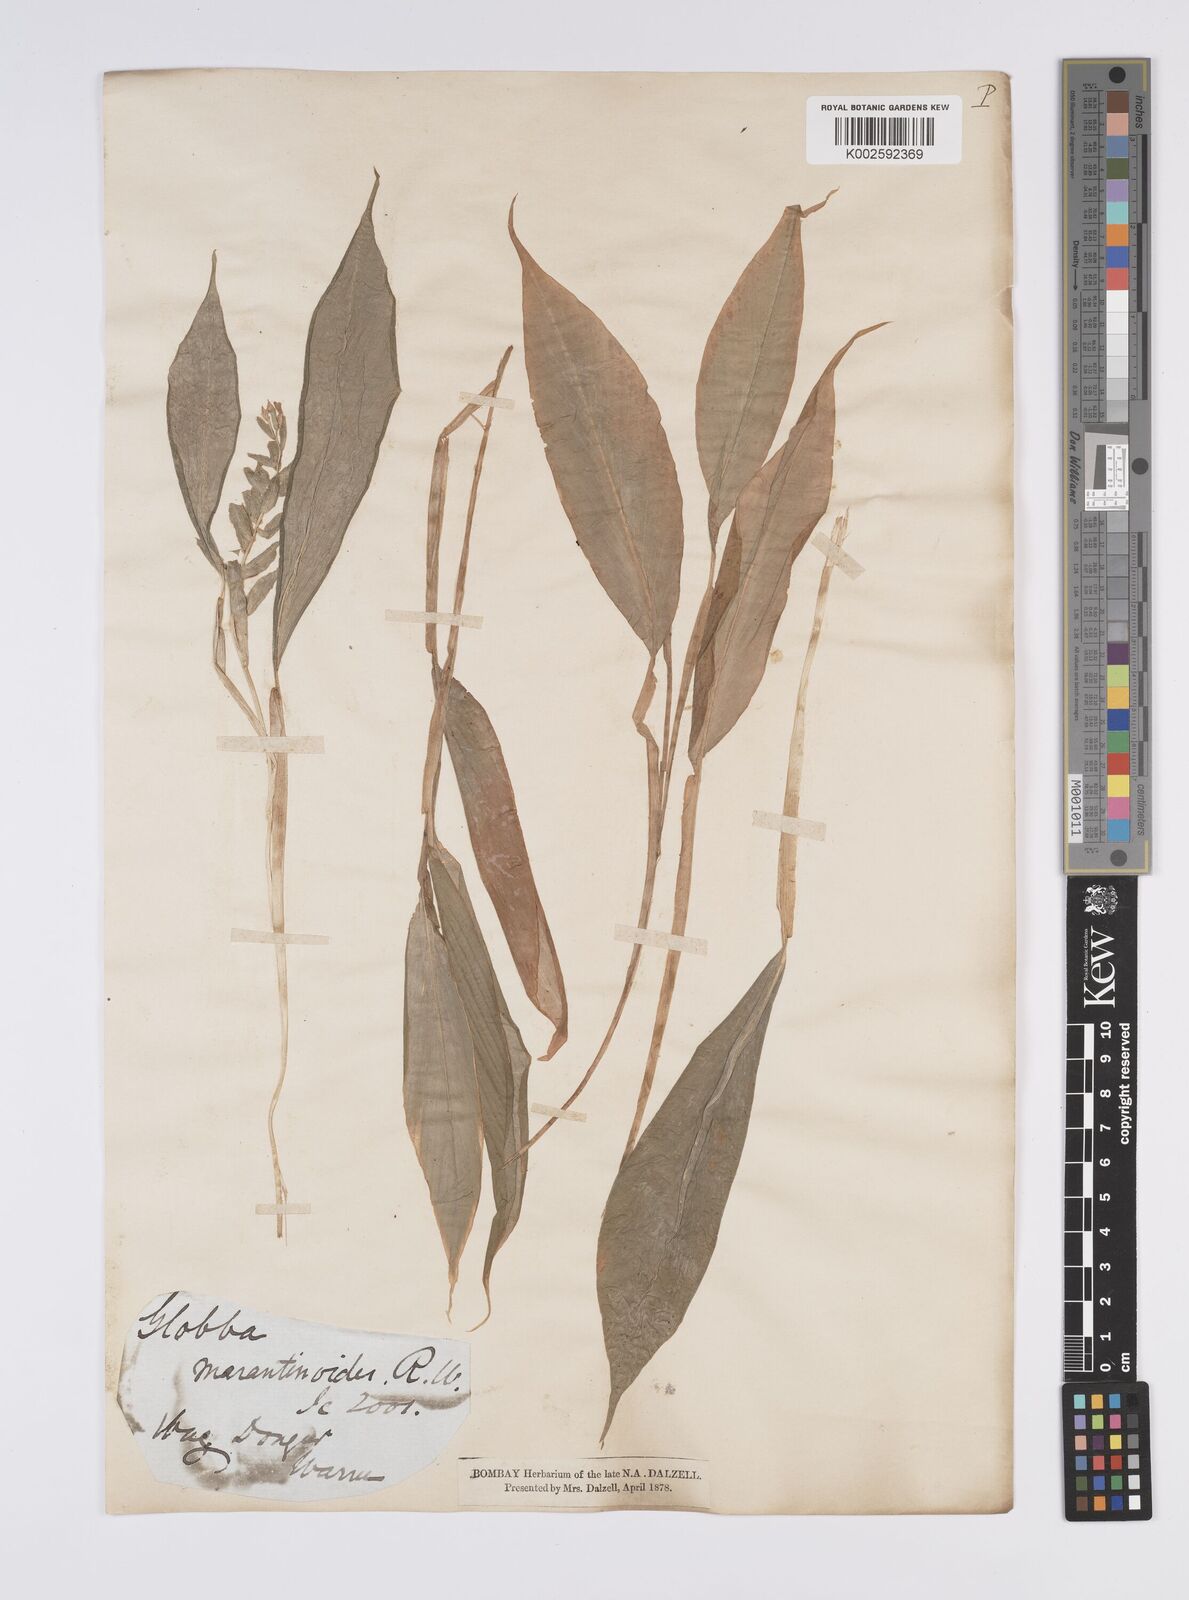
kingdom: Plantae
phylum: Tracheophyta
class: Liliopsida
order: Zingiberales
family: Zingiberaceae
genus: Globba
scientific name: Globba marantina
